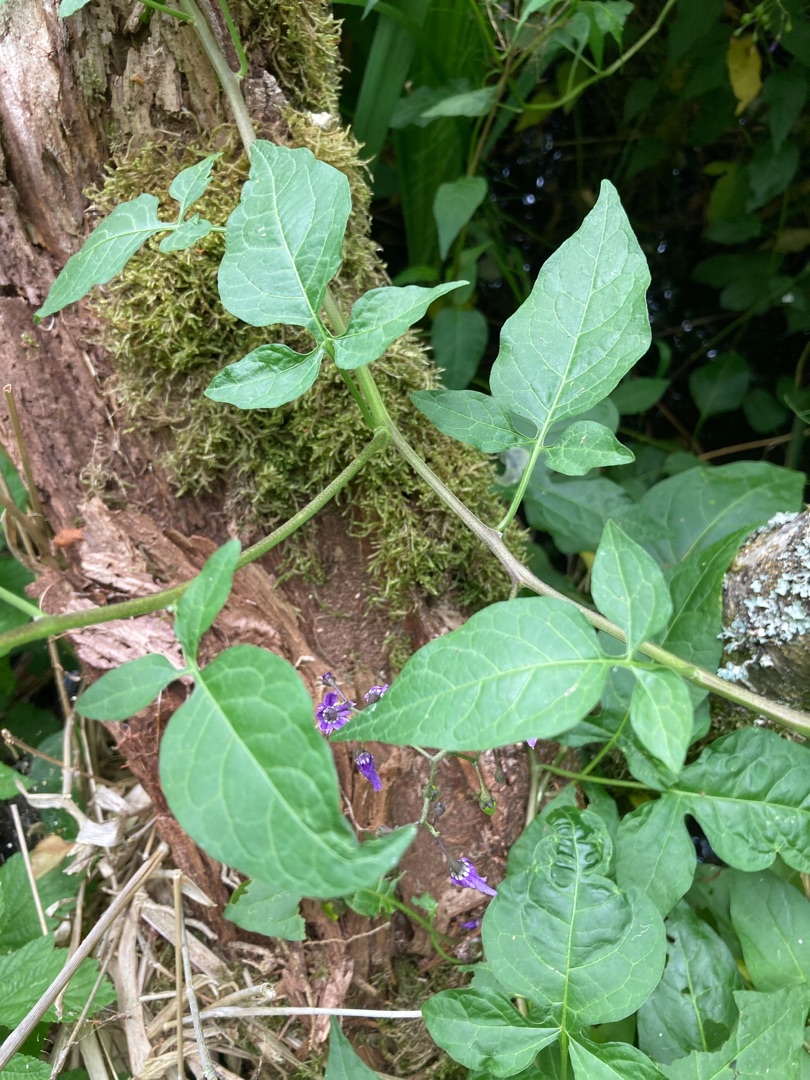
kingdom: Plantae
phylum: Tracheophyta
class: Magnoliopsida
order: Solanales
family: Solanaceae
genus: Solanum
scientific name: Solanum dulcamara
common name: Bittersød natskygge
